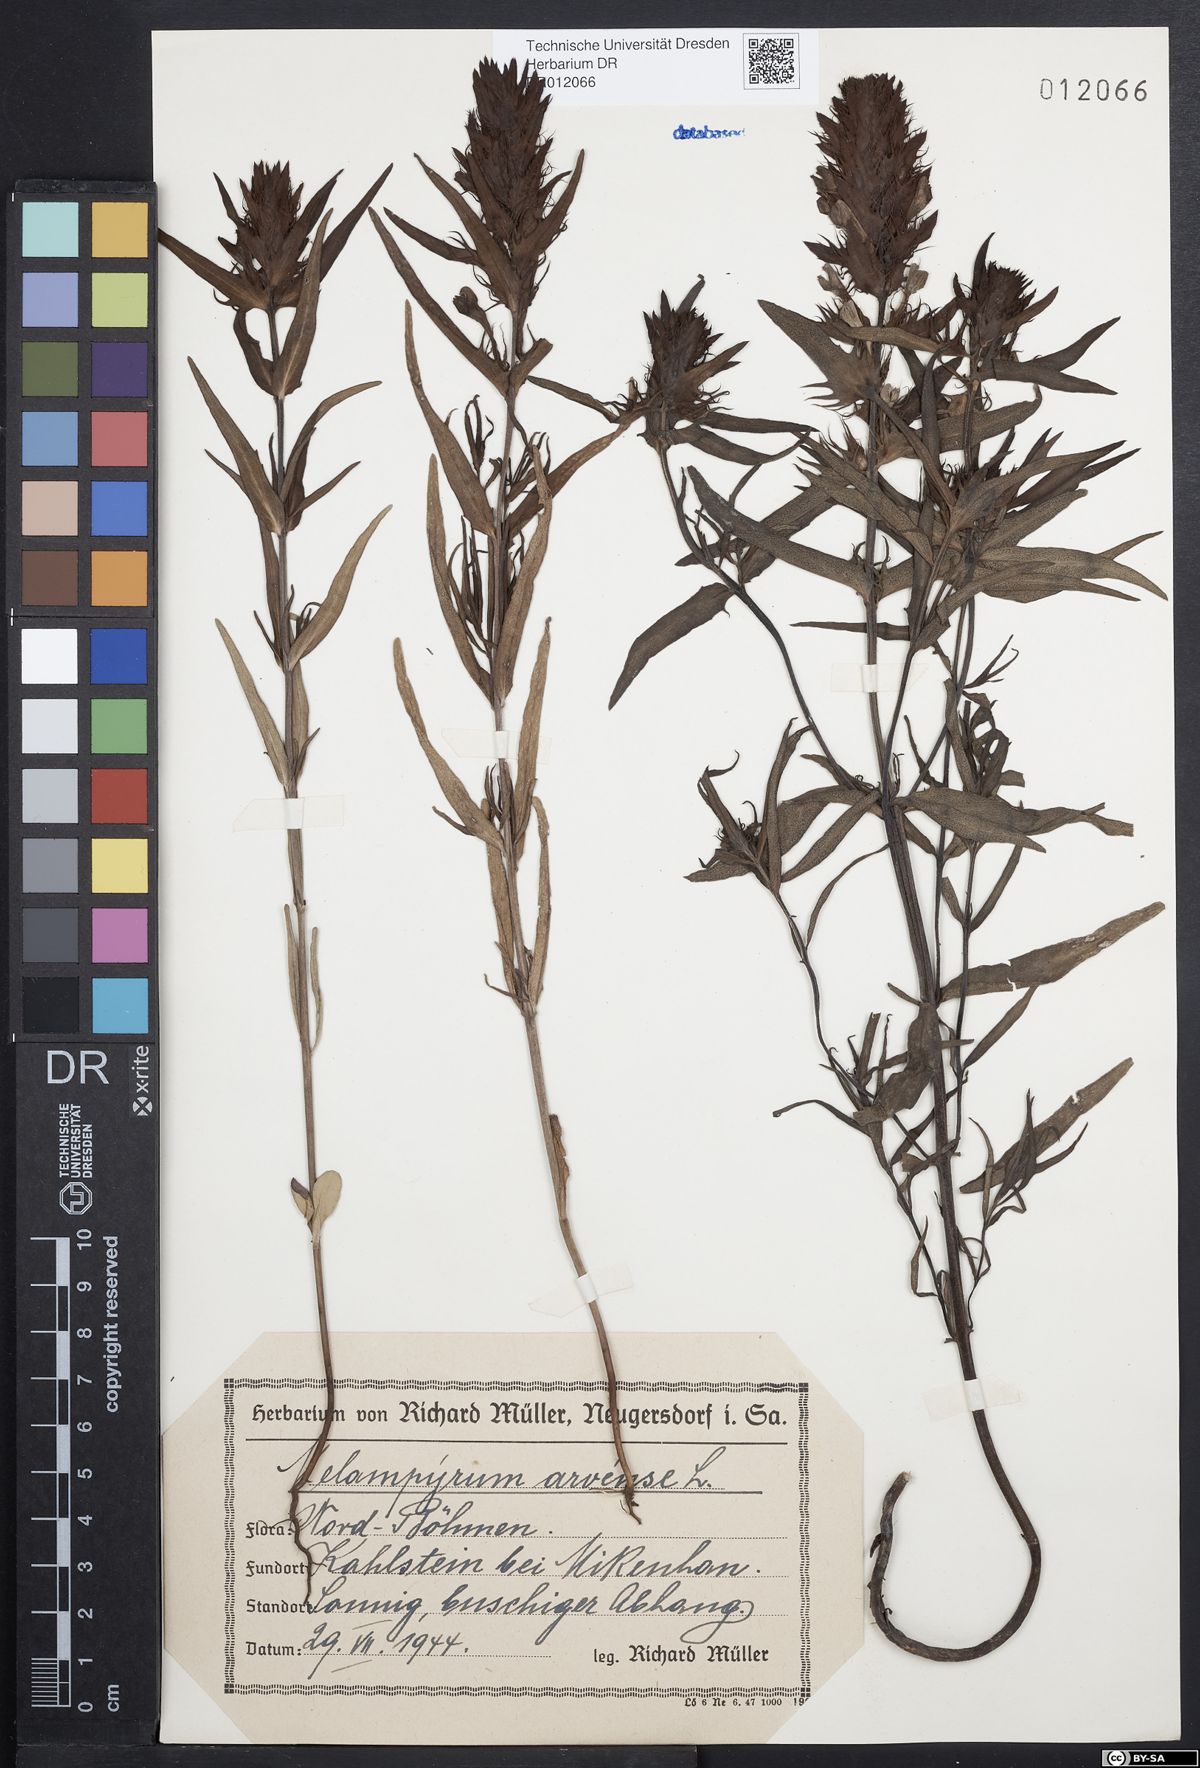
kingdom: Plantae
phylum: Tracheophyta
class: Magnoliopsida
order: Lamiales
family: Orobanchaceae
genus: Melampyrum
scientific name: Melampyrum arvense
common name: Field cow-wheat
